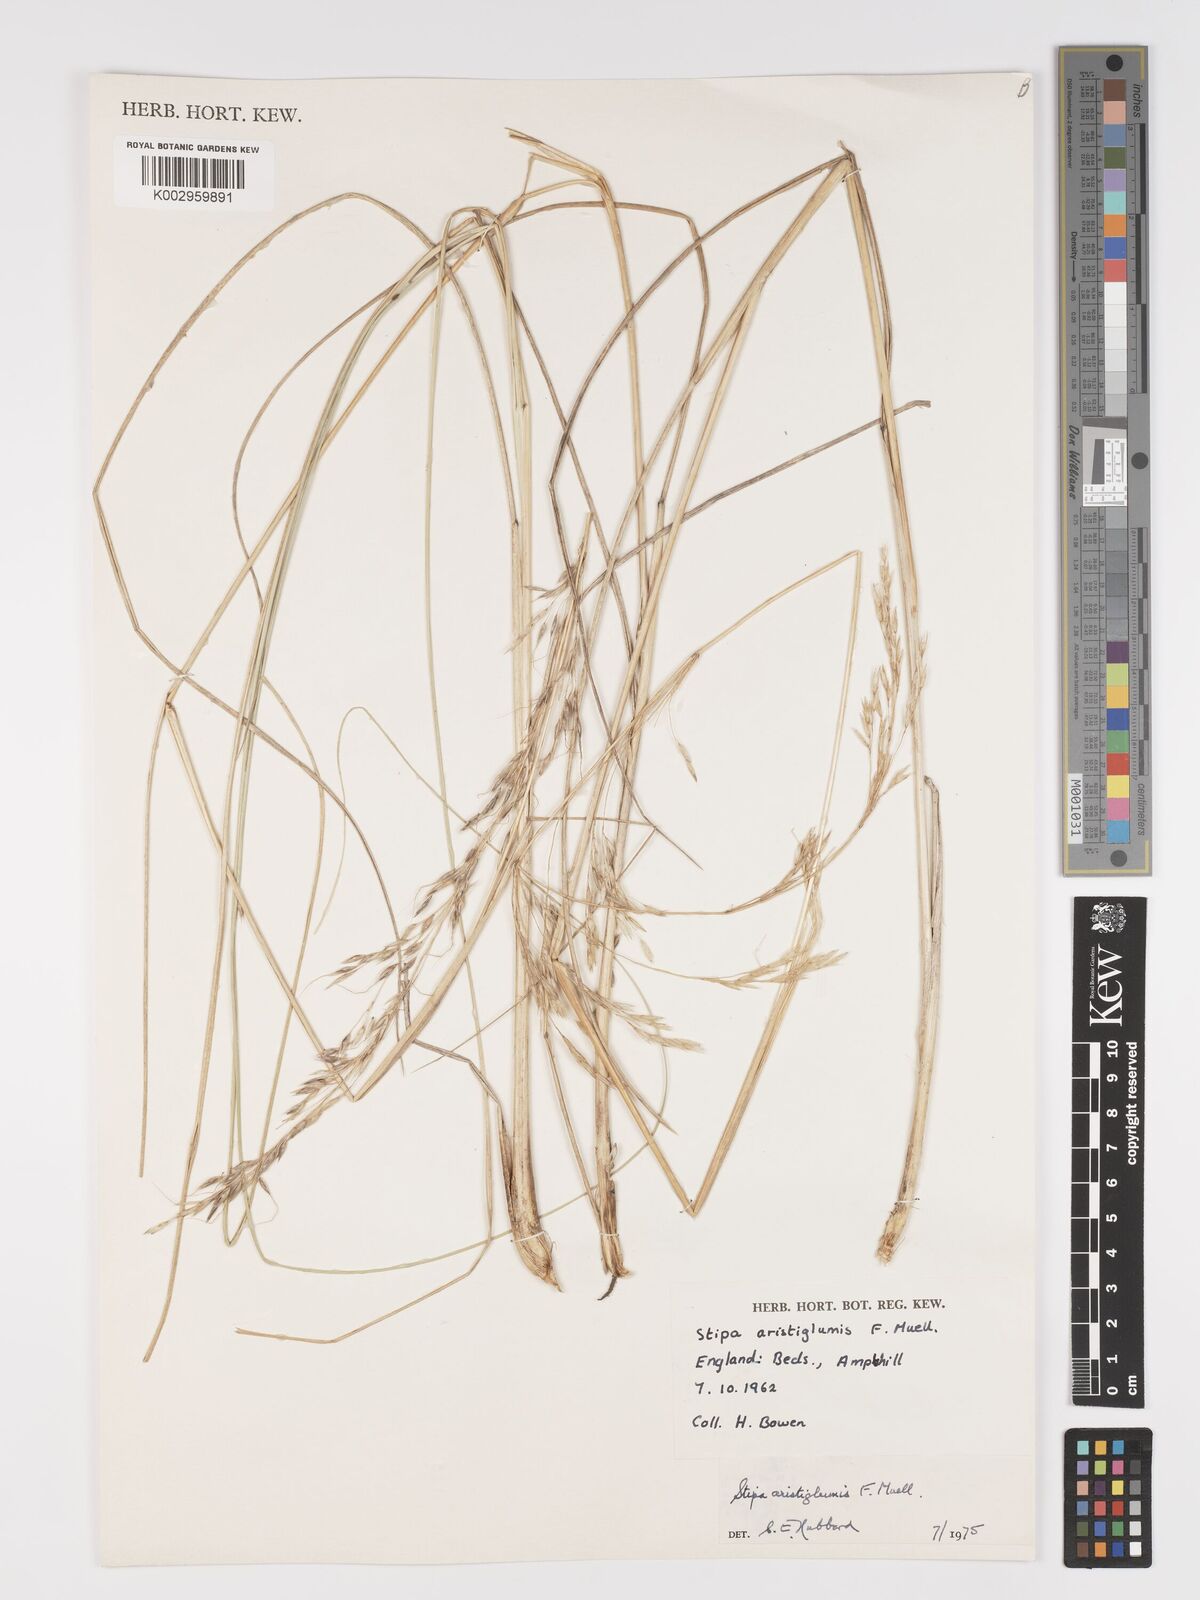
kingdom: Plantae
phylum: Tracheophyta
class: Liliopsida
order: Poales
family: Poaceae
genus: Austrostipa
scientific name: Austrostipa aristiglumis
